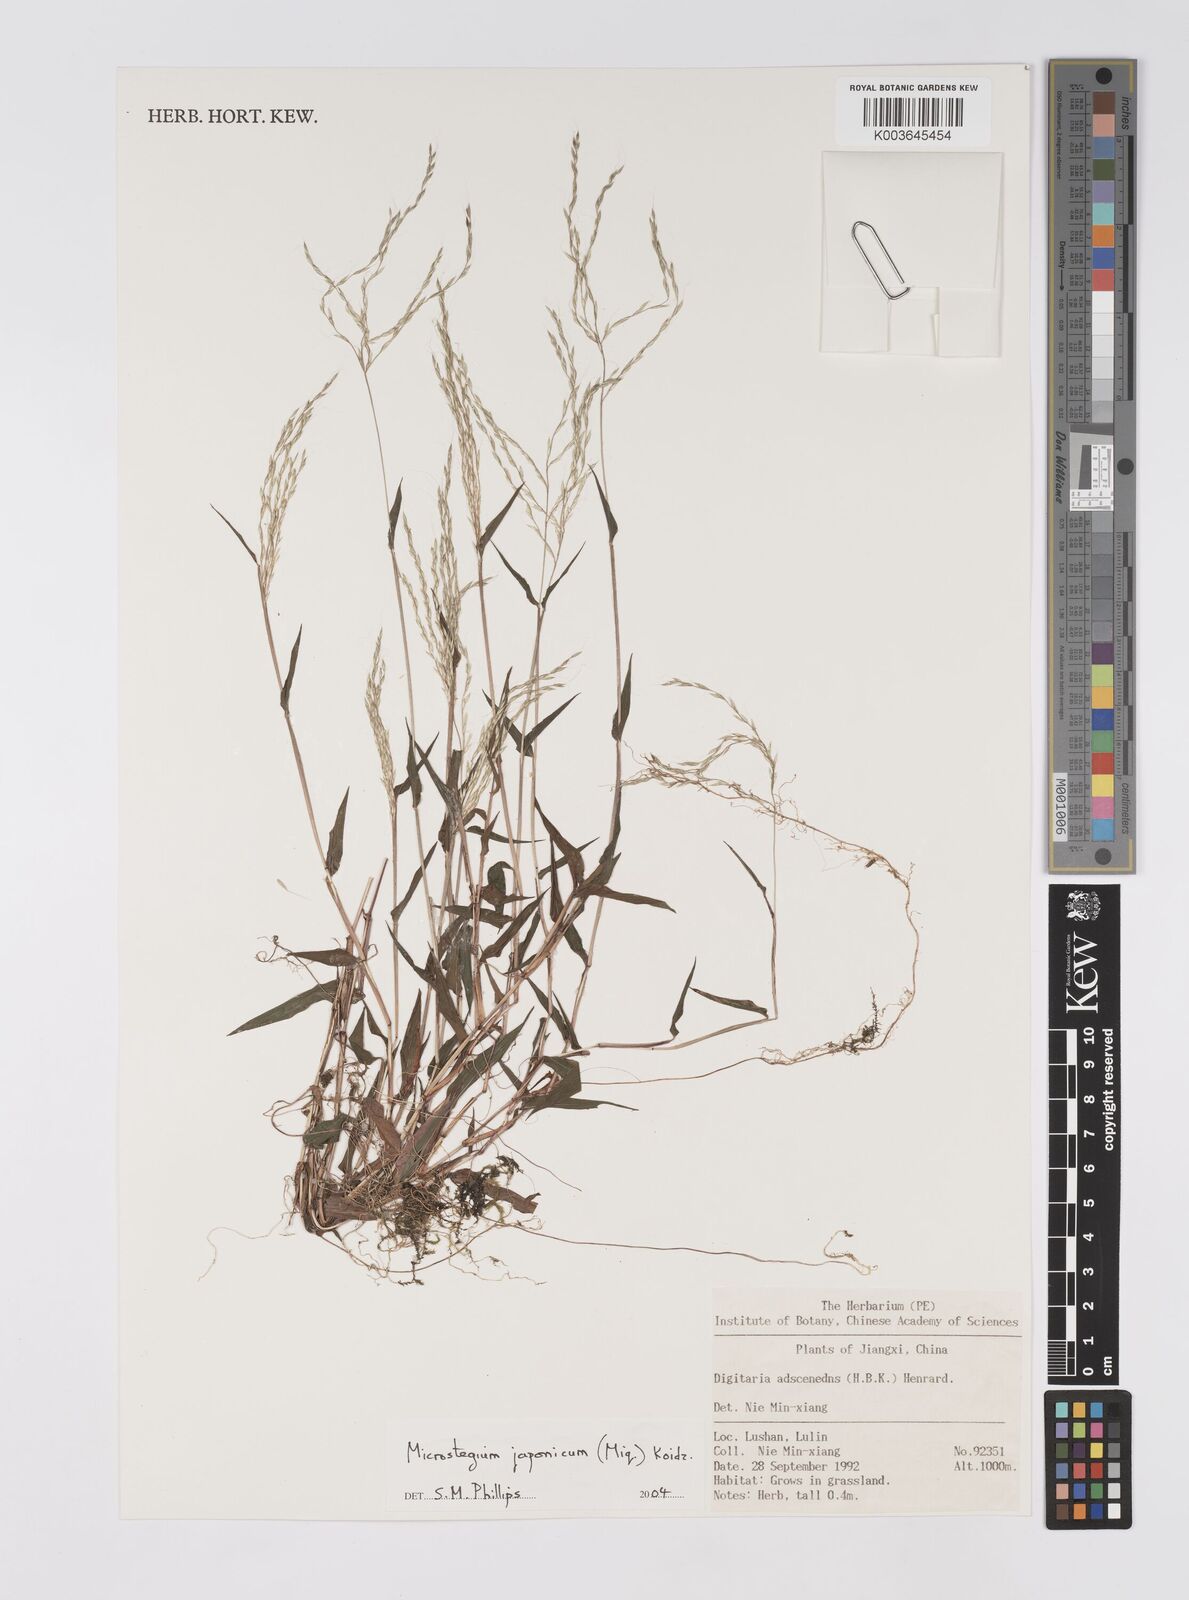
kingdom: Plantae
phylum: Tracheophyta
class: Liliopsida
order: Poales
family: Poaceae
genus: Microstegium
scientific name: Microstegium japonicum
